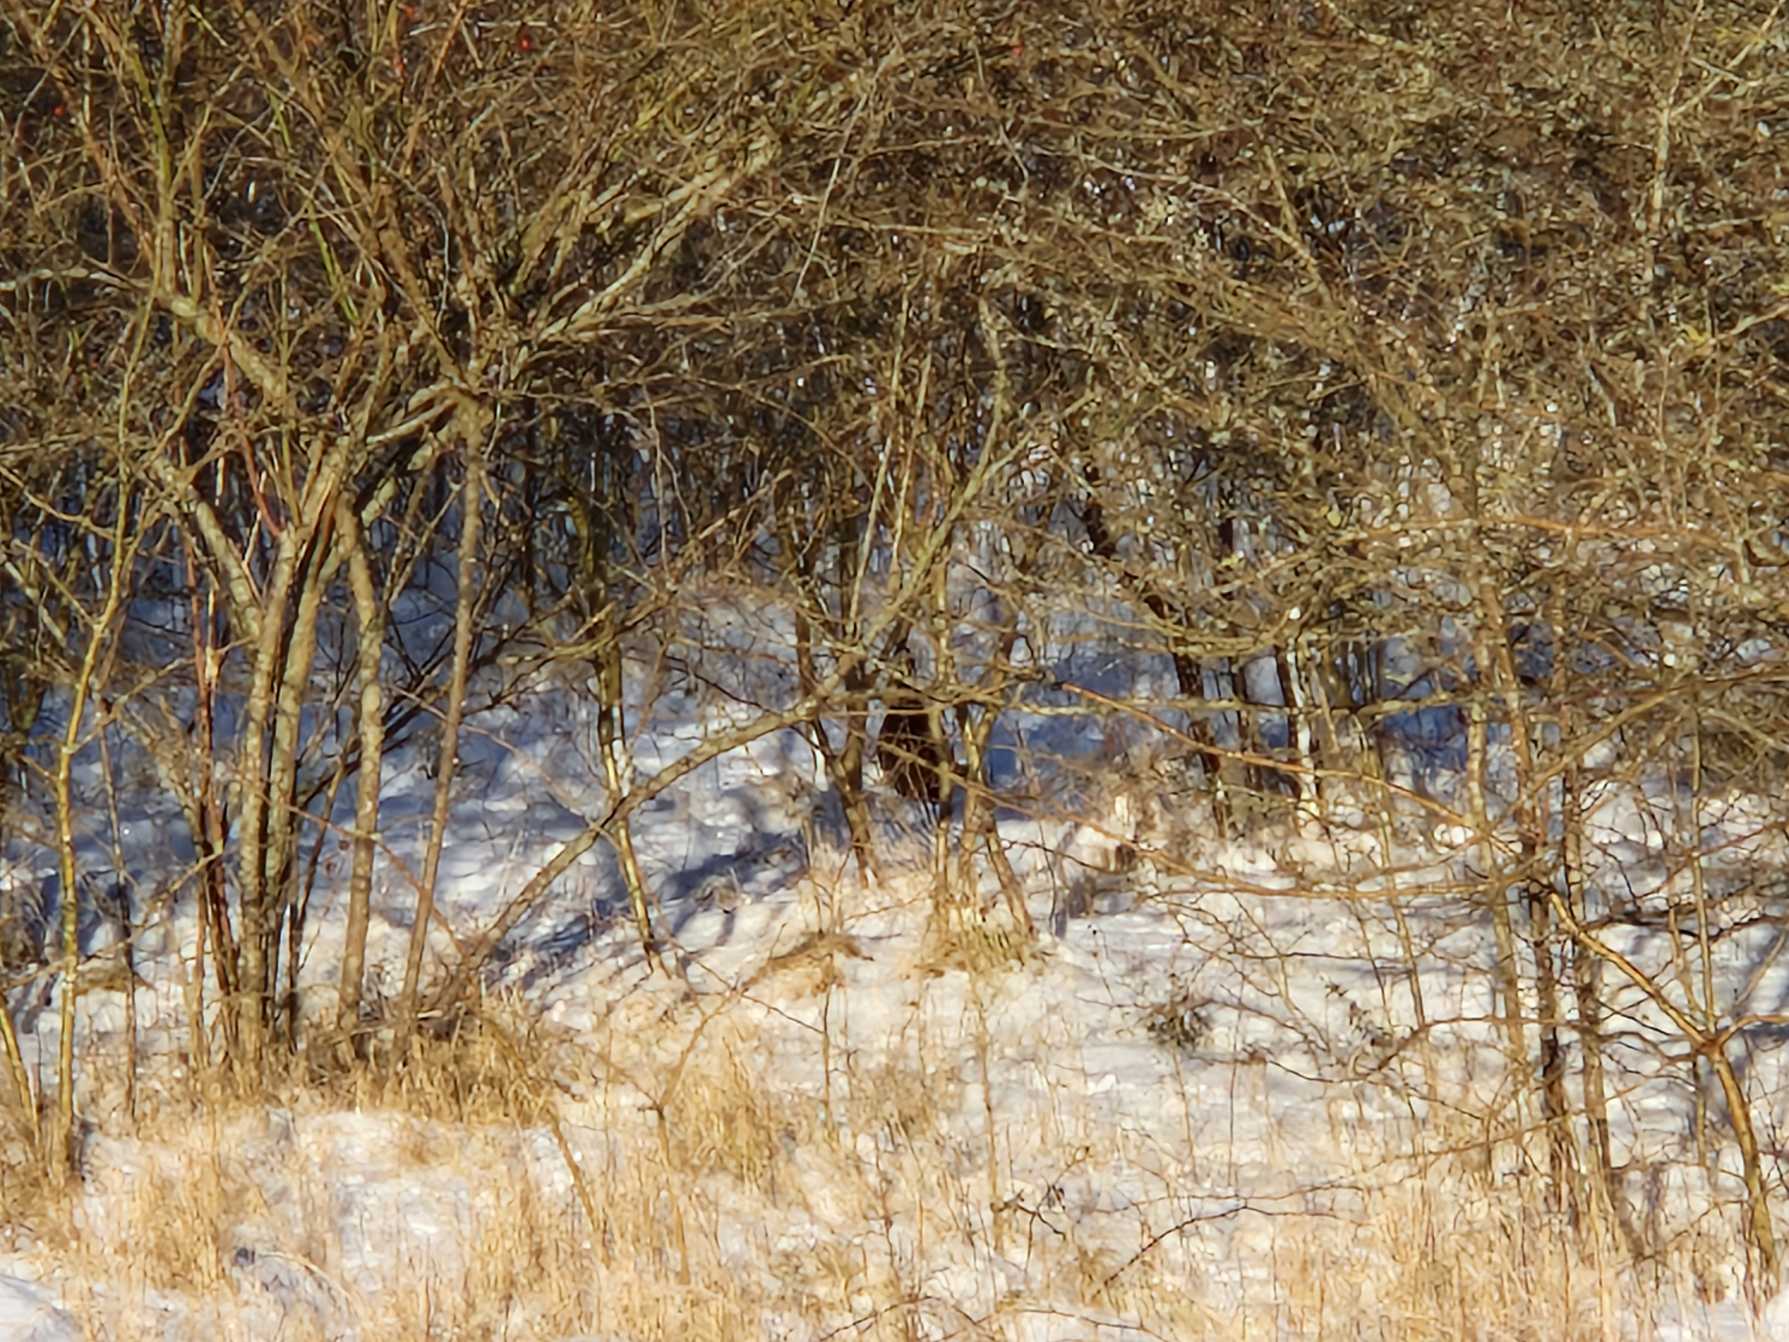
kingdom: Animalia
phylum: Chordata
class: Aves
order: Galliformes
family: Phasianidae
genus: Phasianus
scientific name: Phasianus colchicus
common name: Fasan
